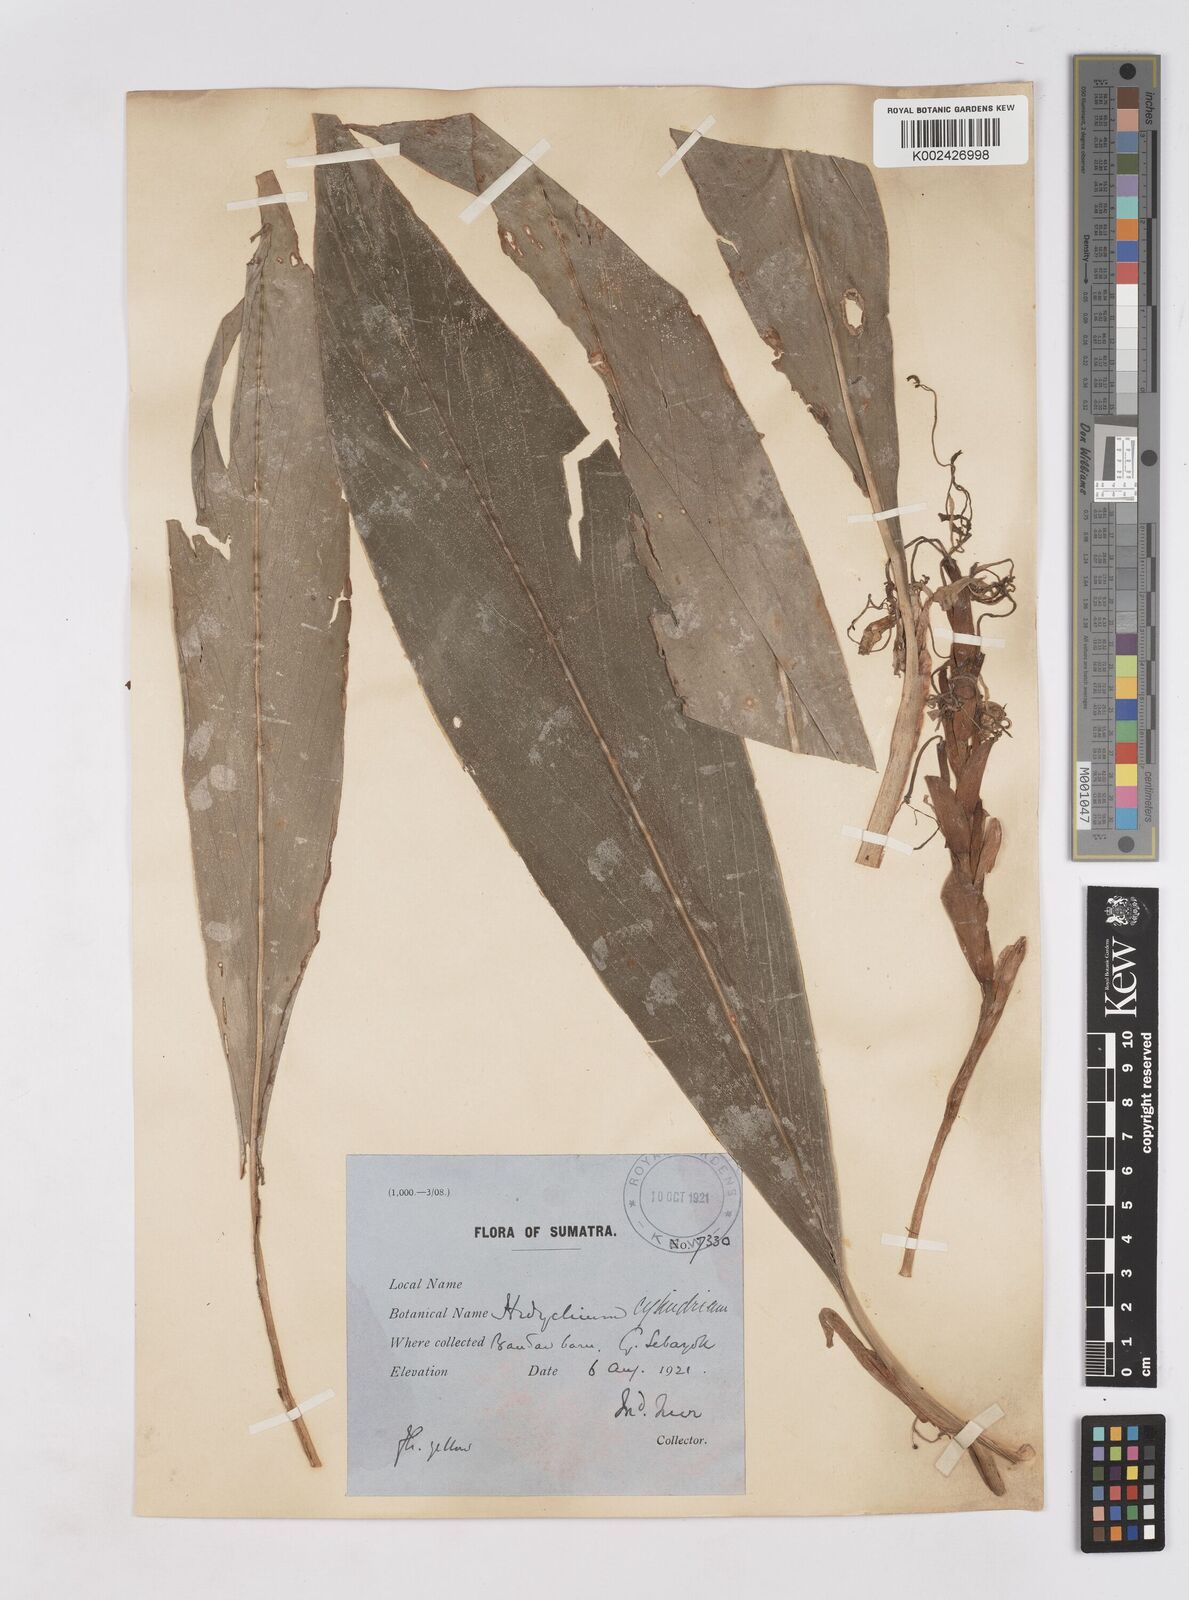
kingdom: Plantae
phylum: Tracheophyta
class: Liliopsida
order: Zingiberales
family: Zingiberaceae
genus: Hedychium
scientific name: Hedychium cylindricum
